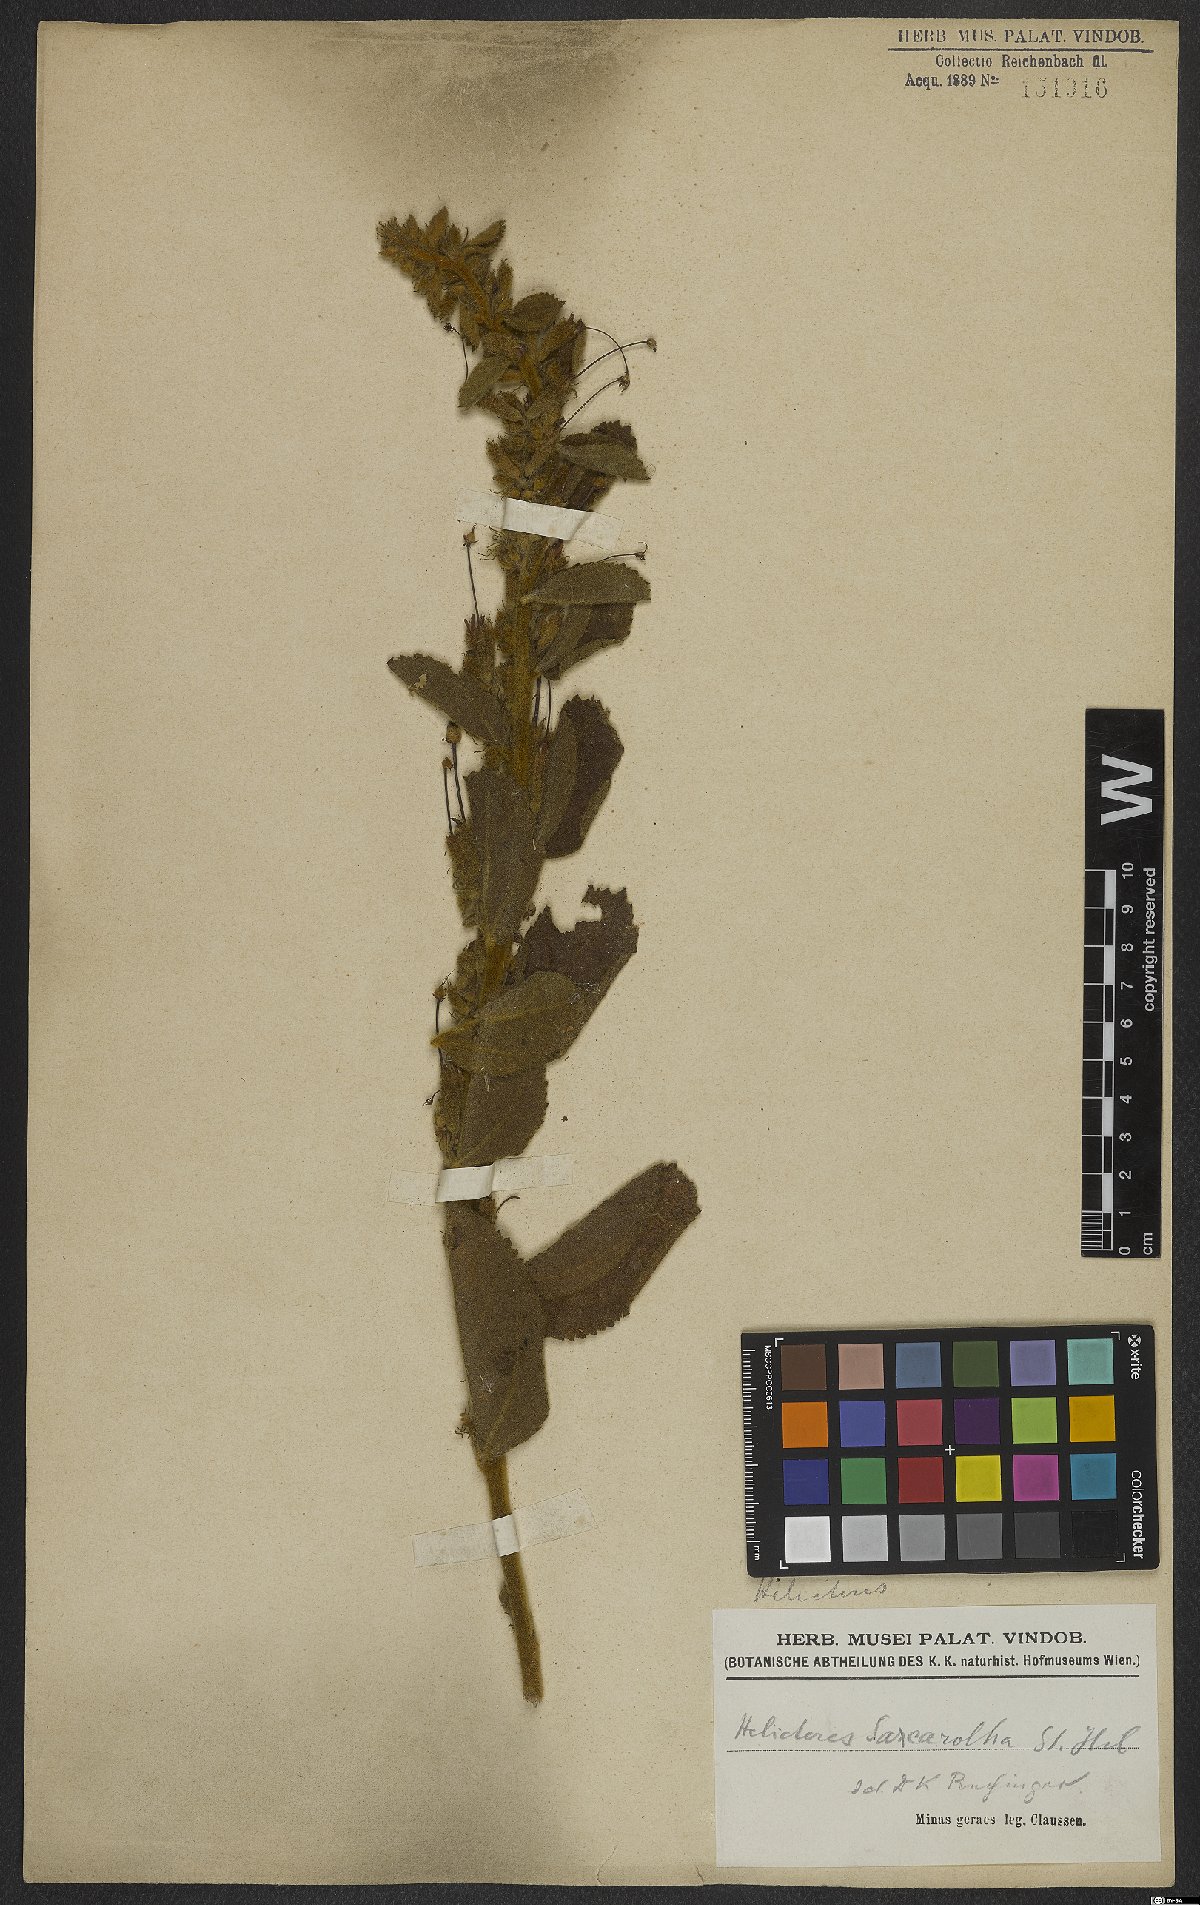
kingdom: Plantae
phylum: Tracheophyta
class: Magnoliopsida
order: Malvales
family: Malvaceae
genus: Helicteres
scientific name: Helicteres sacarolha
